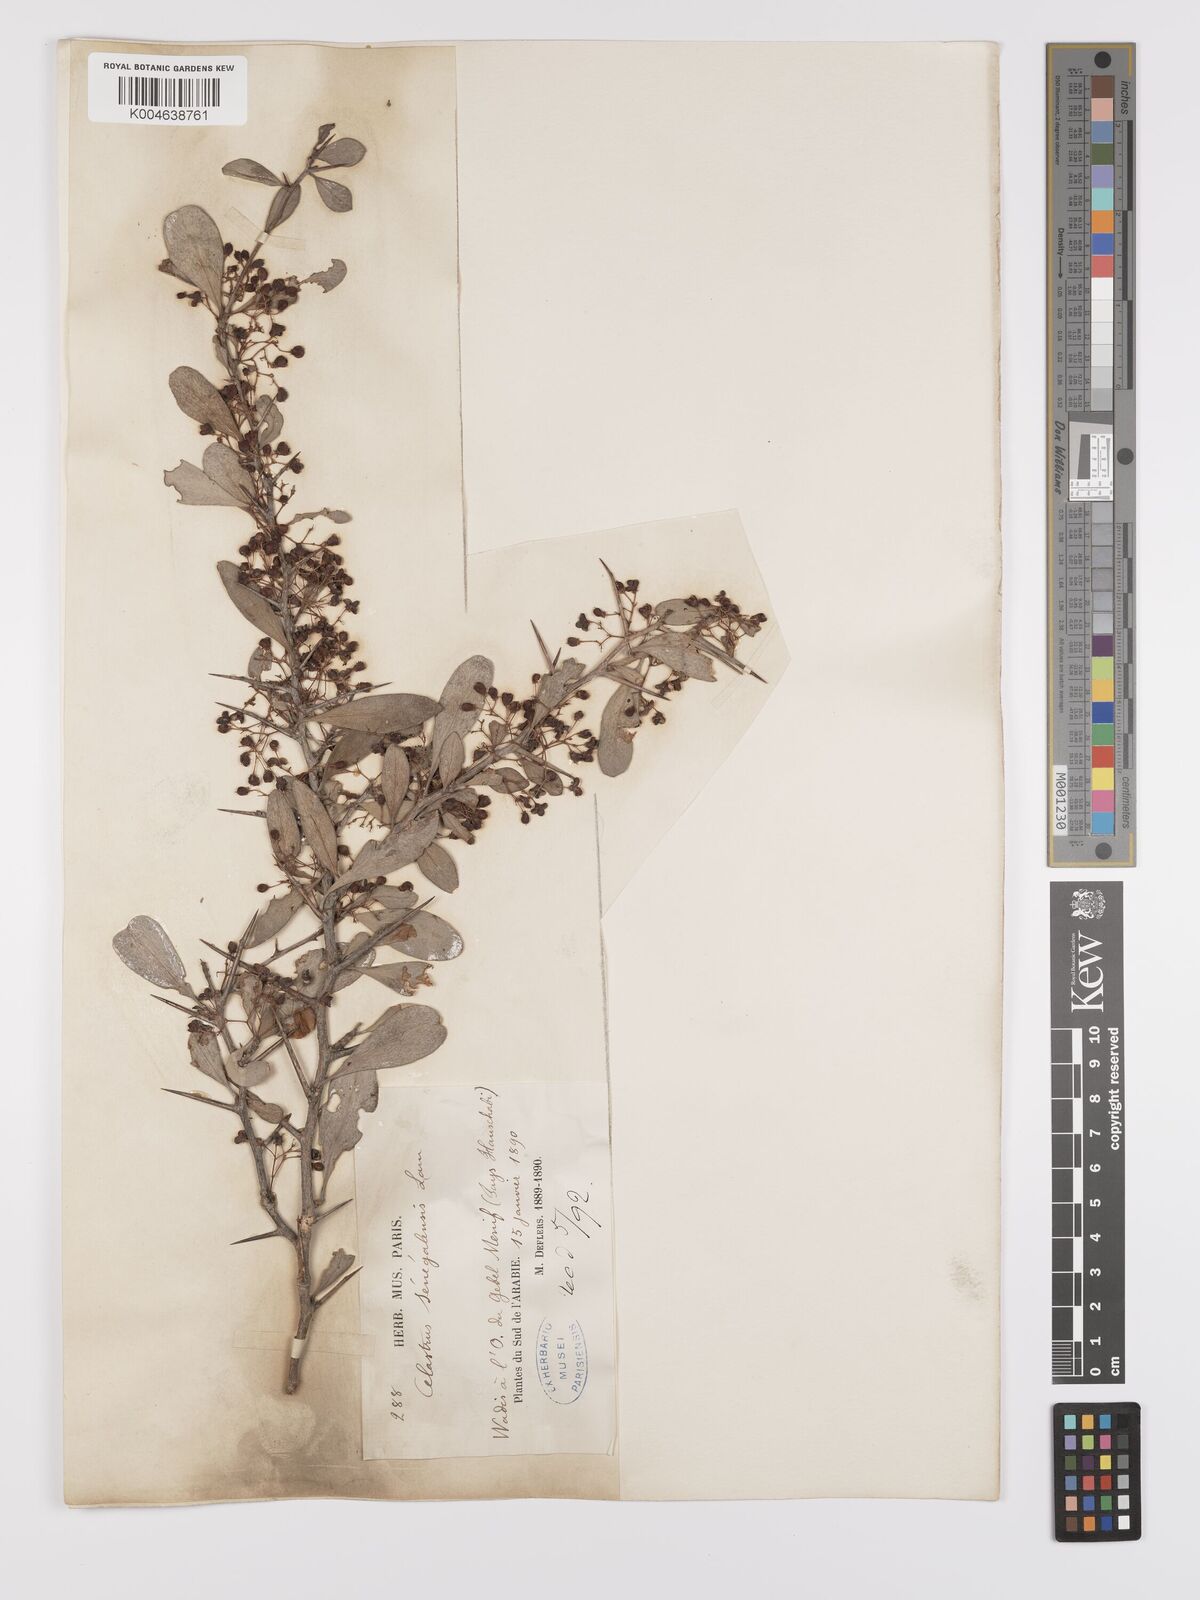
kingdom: Plantae
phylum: Tracheophyta
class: Magnoliopsida
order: Celastrales
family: Celastraceae
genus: Gymnosporia
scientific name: Gymnosporia senegalensis
